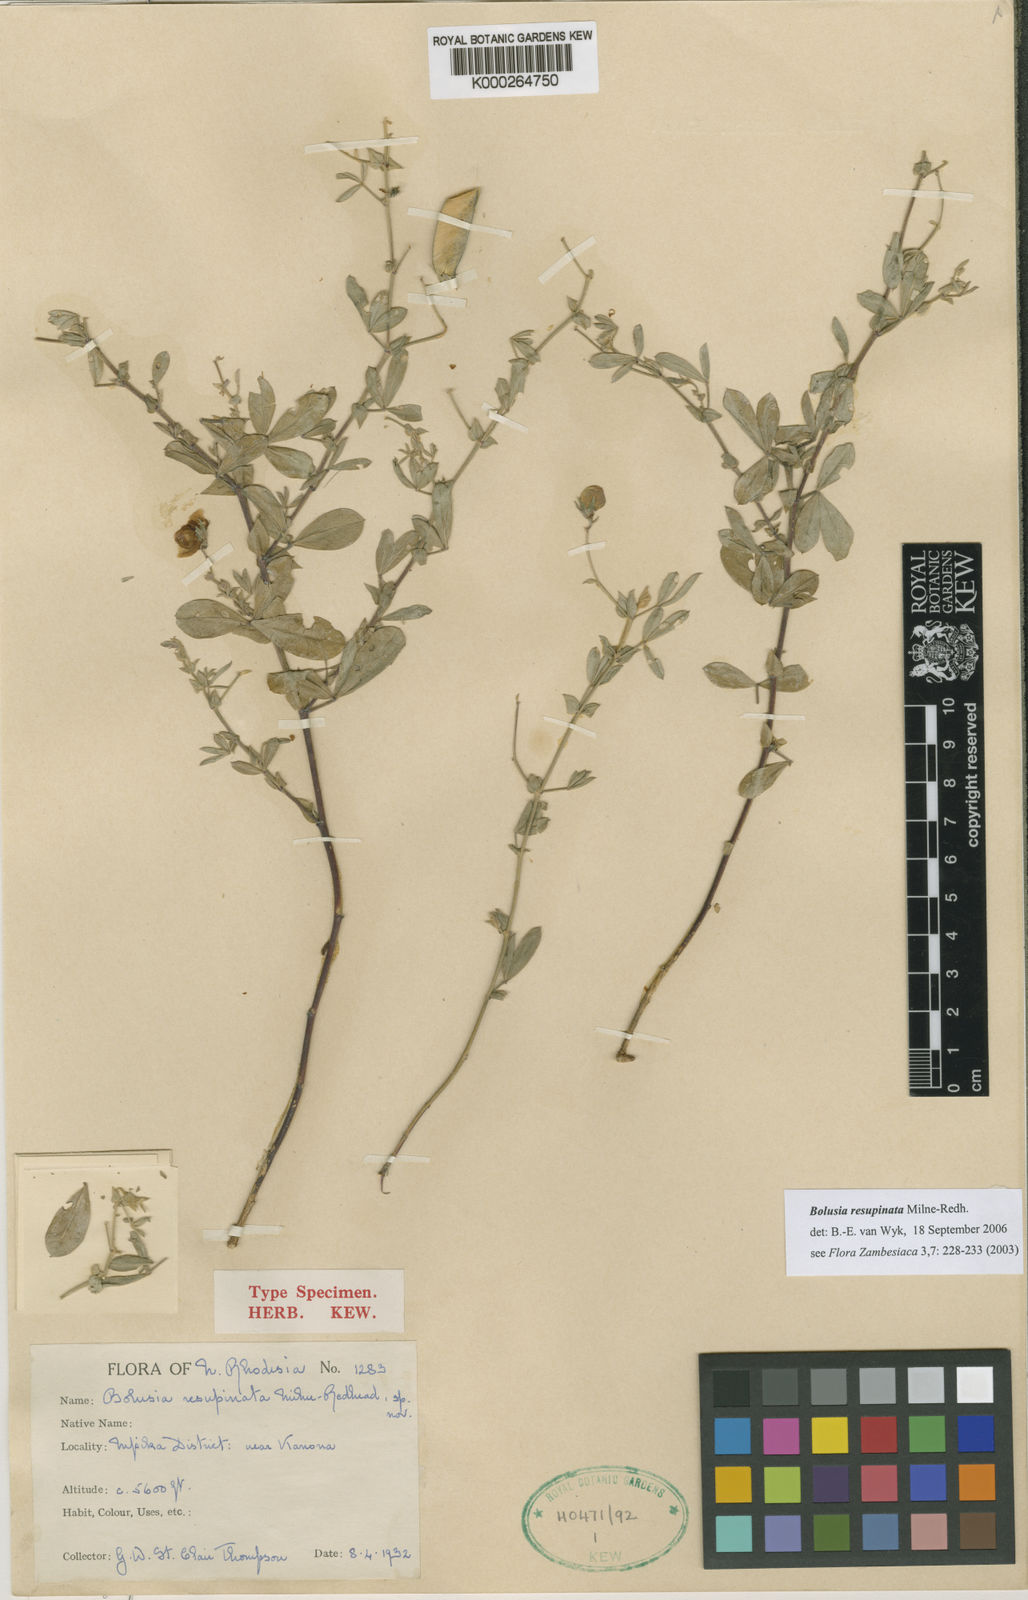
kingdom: Plantae
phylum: Tracheophyta
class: Magnoliopsida
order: Fabales
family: Fabaceae
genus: Bolusia
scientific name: Bolusia resupinata
